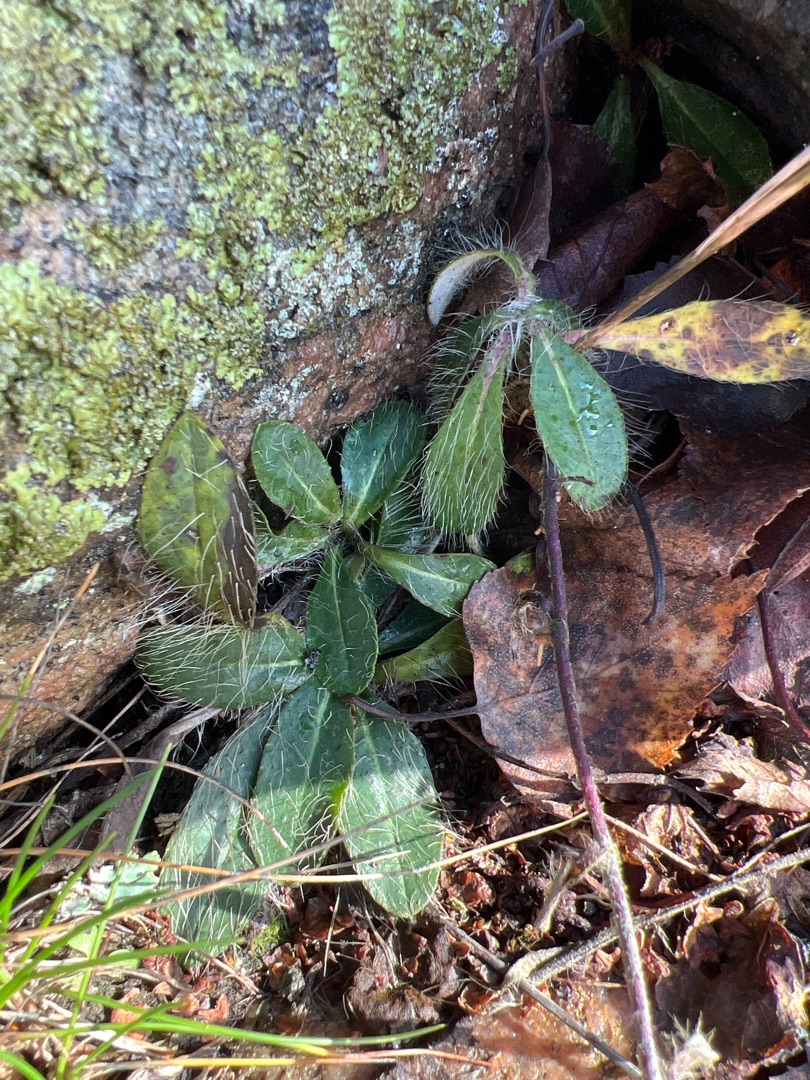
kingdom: Plantae
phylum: Tracheophyta
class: Magnoliopsida
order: Asterales
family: Asteraceae
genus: Pilosella
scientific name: Pilosella officinarum
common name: Håret høgeurt
